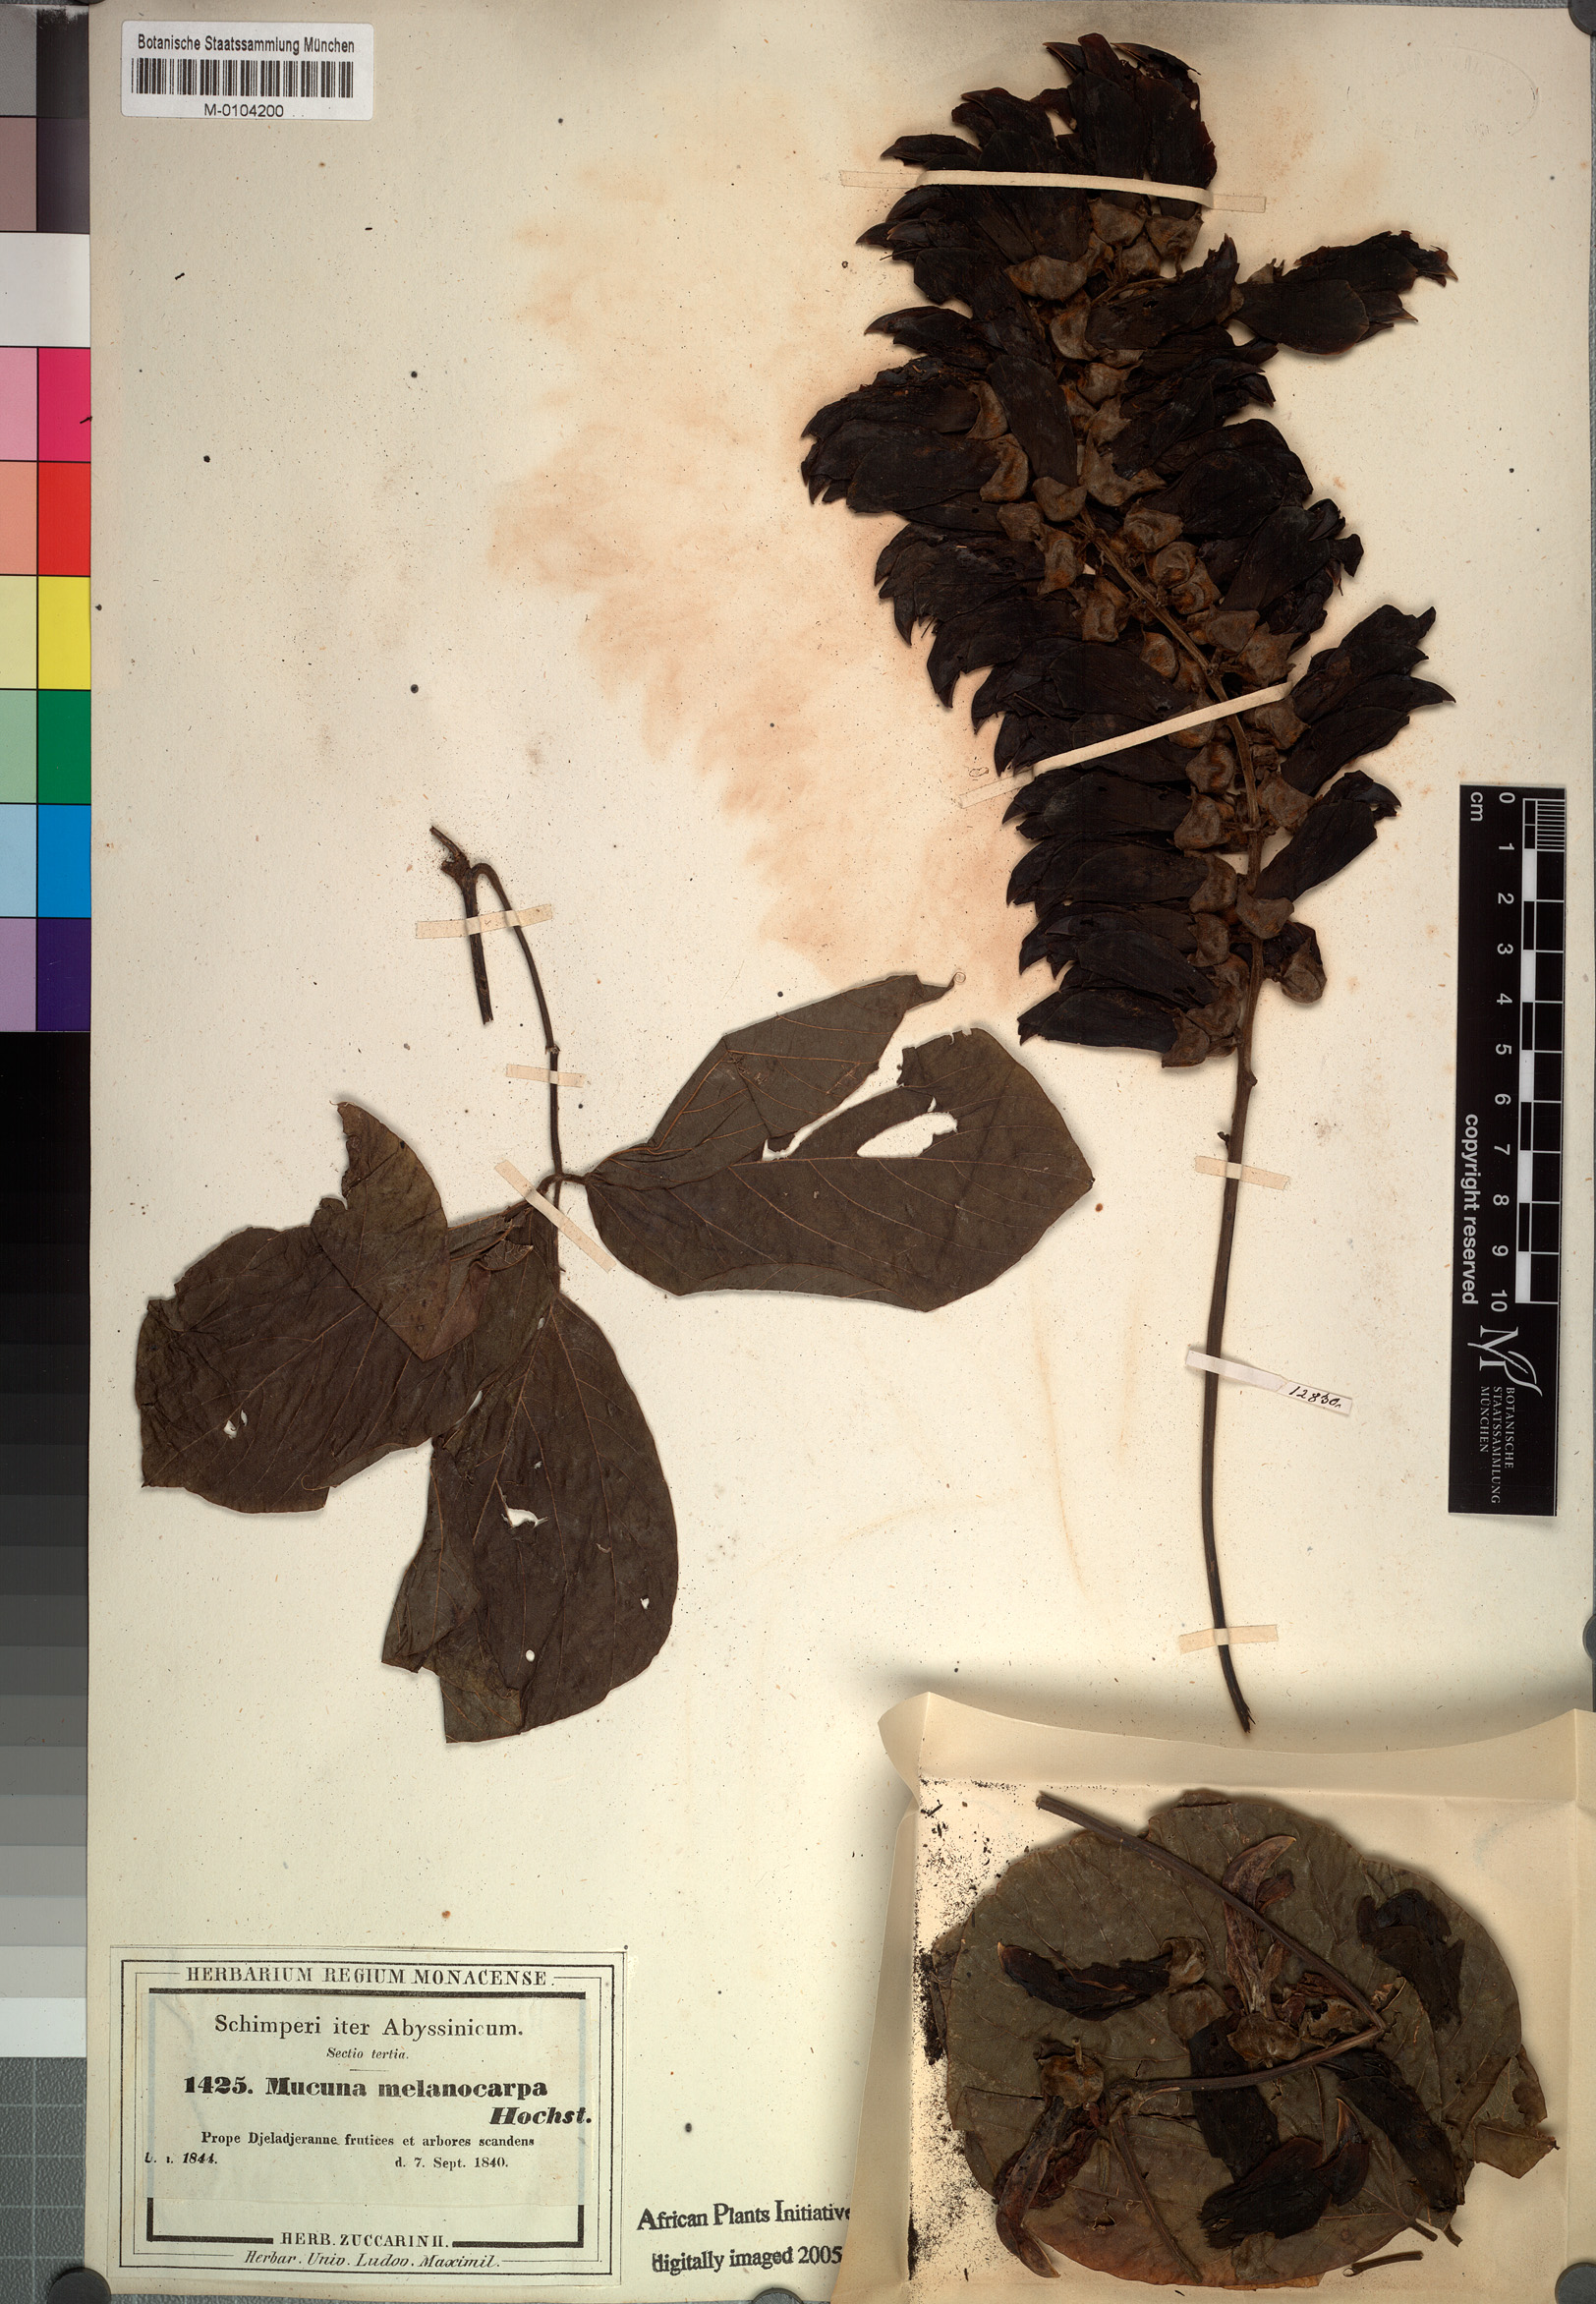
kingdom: Plantae
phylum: Tracheophyta
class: Magnoliopsida
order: Fabales
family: Fabaceae
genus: Mucuna
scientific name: Mucuna melanocarpa
